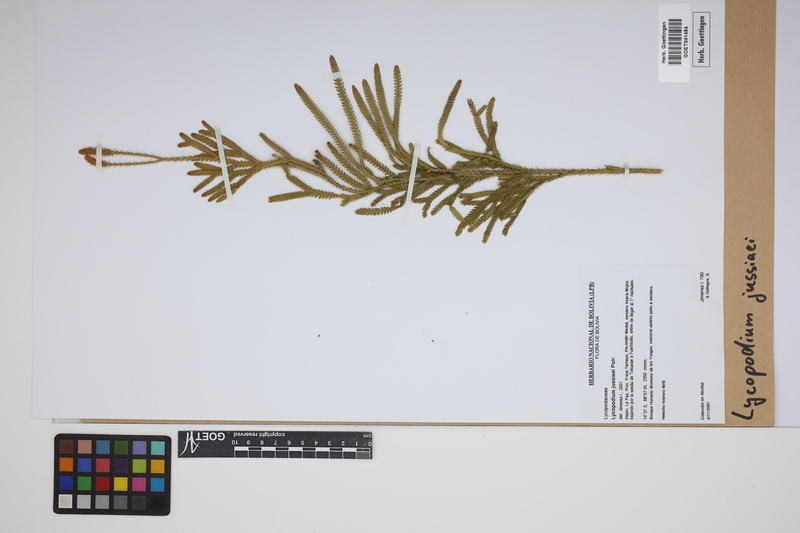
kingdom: Plantae
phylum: Tracheophyta
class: Lycopodiopsida
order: Lycopodiales
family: Lycopodiaceae
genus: Diphasium
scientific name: Diphasium jussiaei
